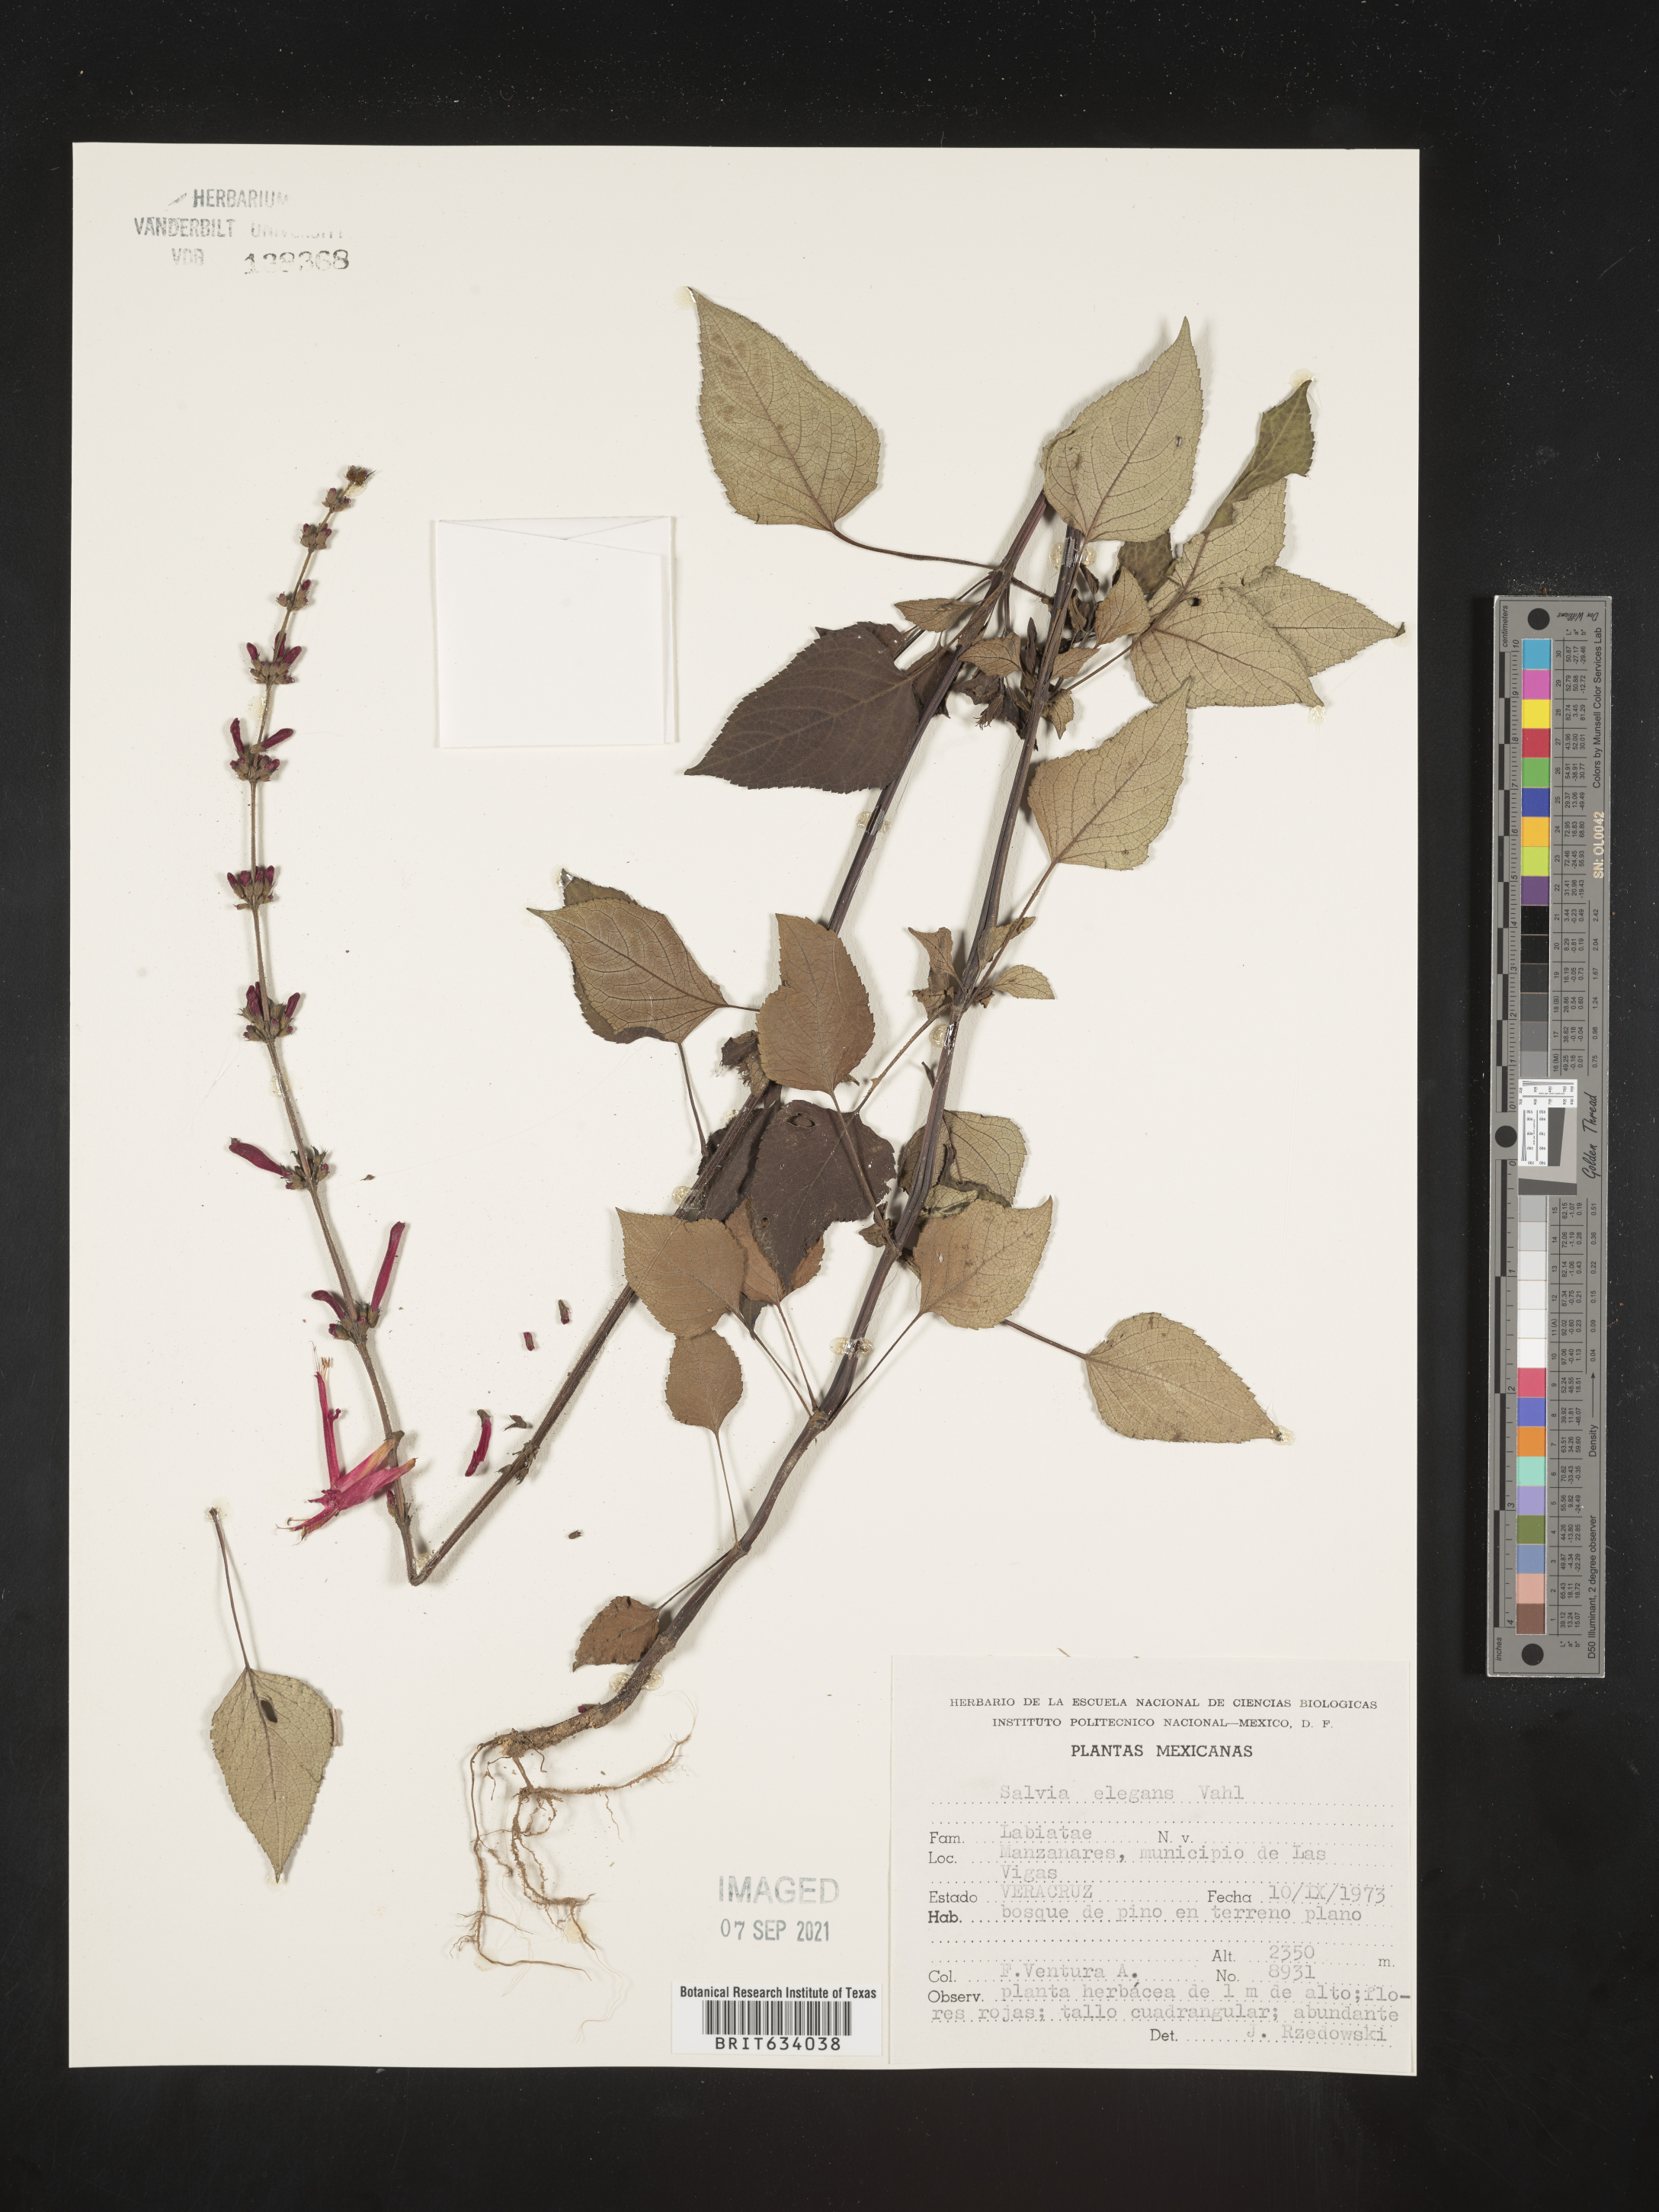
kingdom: Plantae
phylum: Tracheophyta
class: Magnoliopsida
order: Lamiales
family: Lamiaceae
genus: Salvia
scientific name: Salvia
